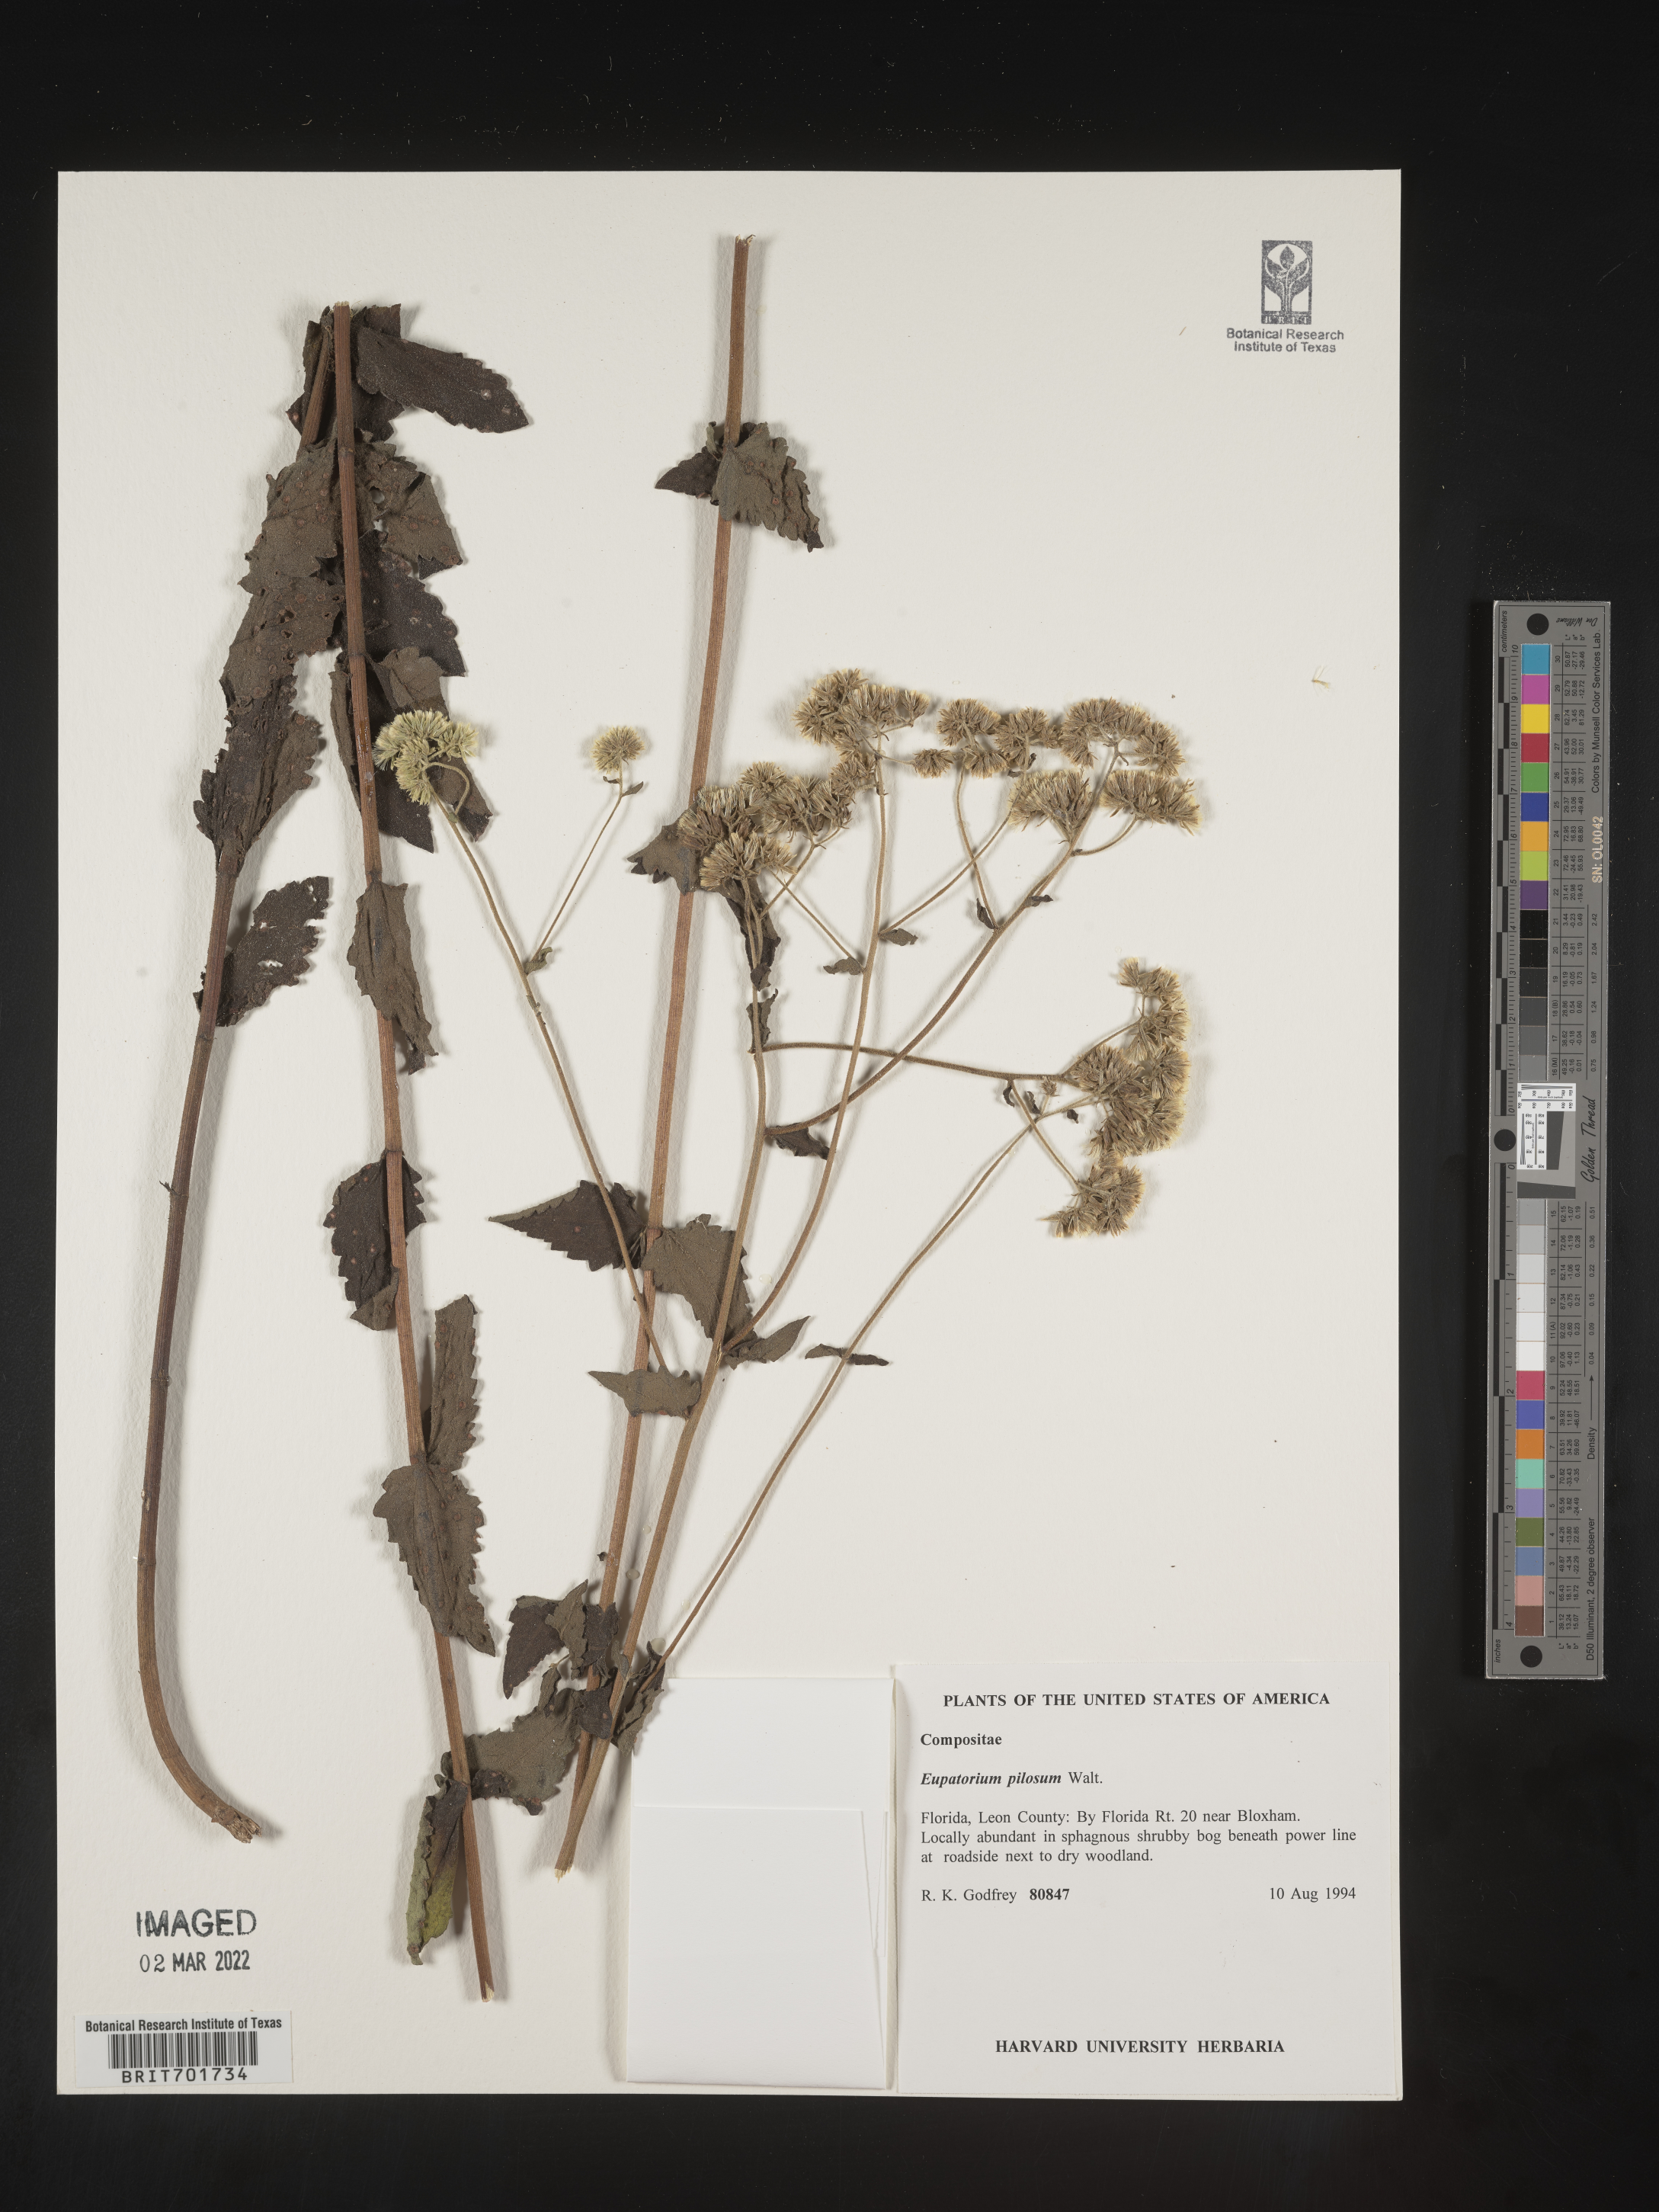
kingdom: Plantae
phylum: Tracheophyta
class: Magnoliopsida
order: Asterales
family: Asteraceae
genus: Eupatorium
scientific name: Eupatorium pilosum
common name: Rough boneset
